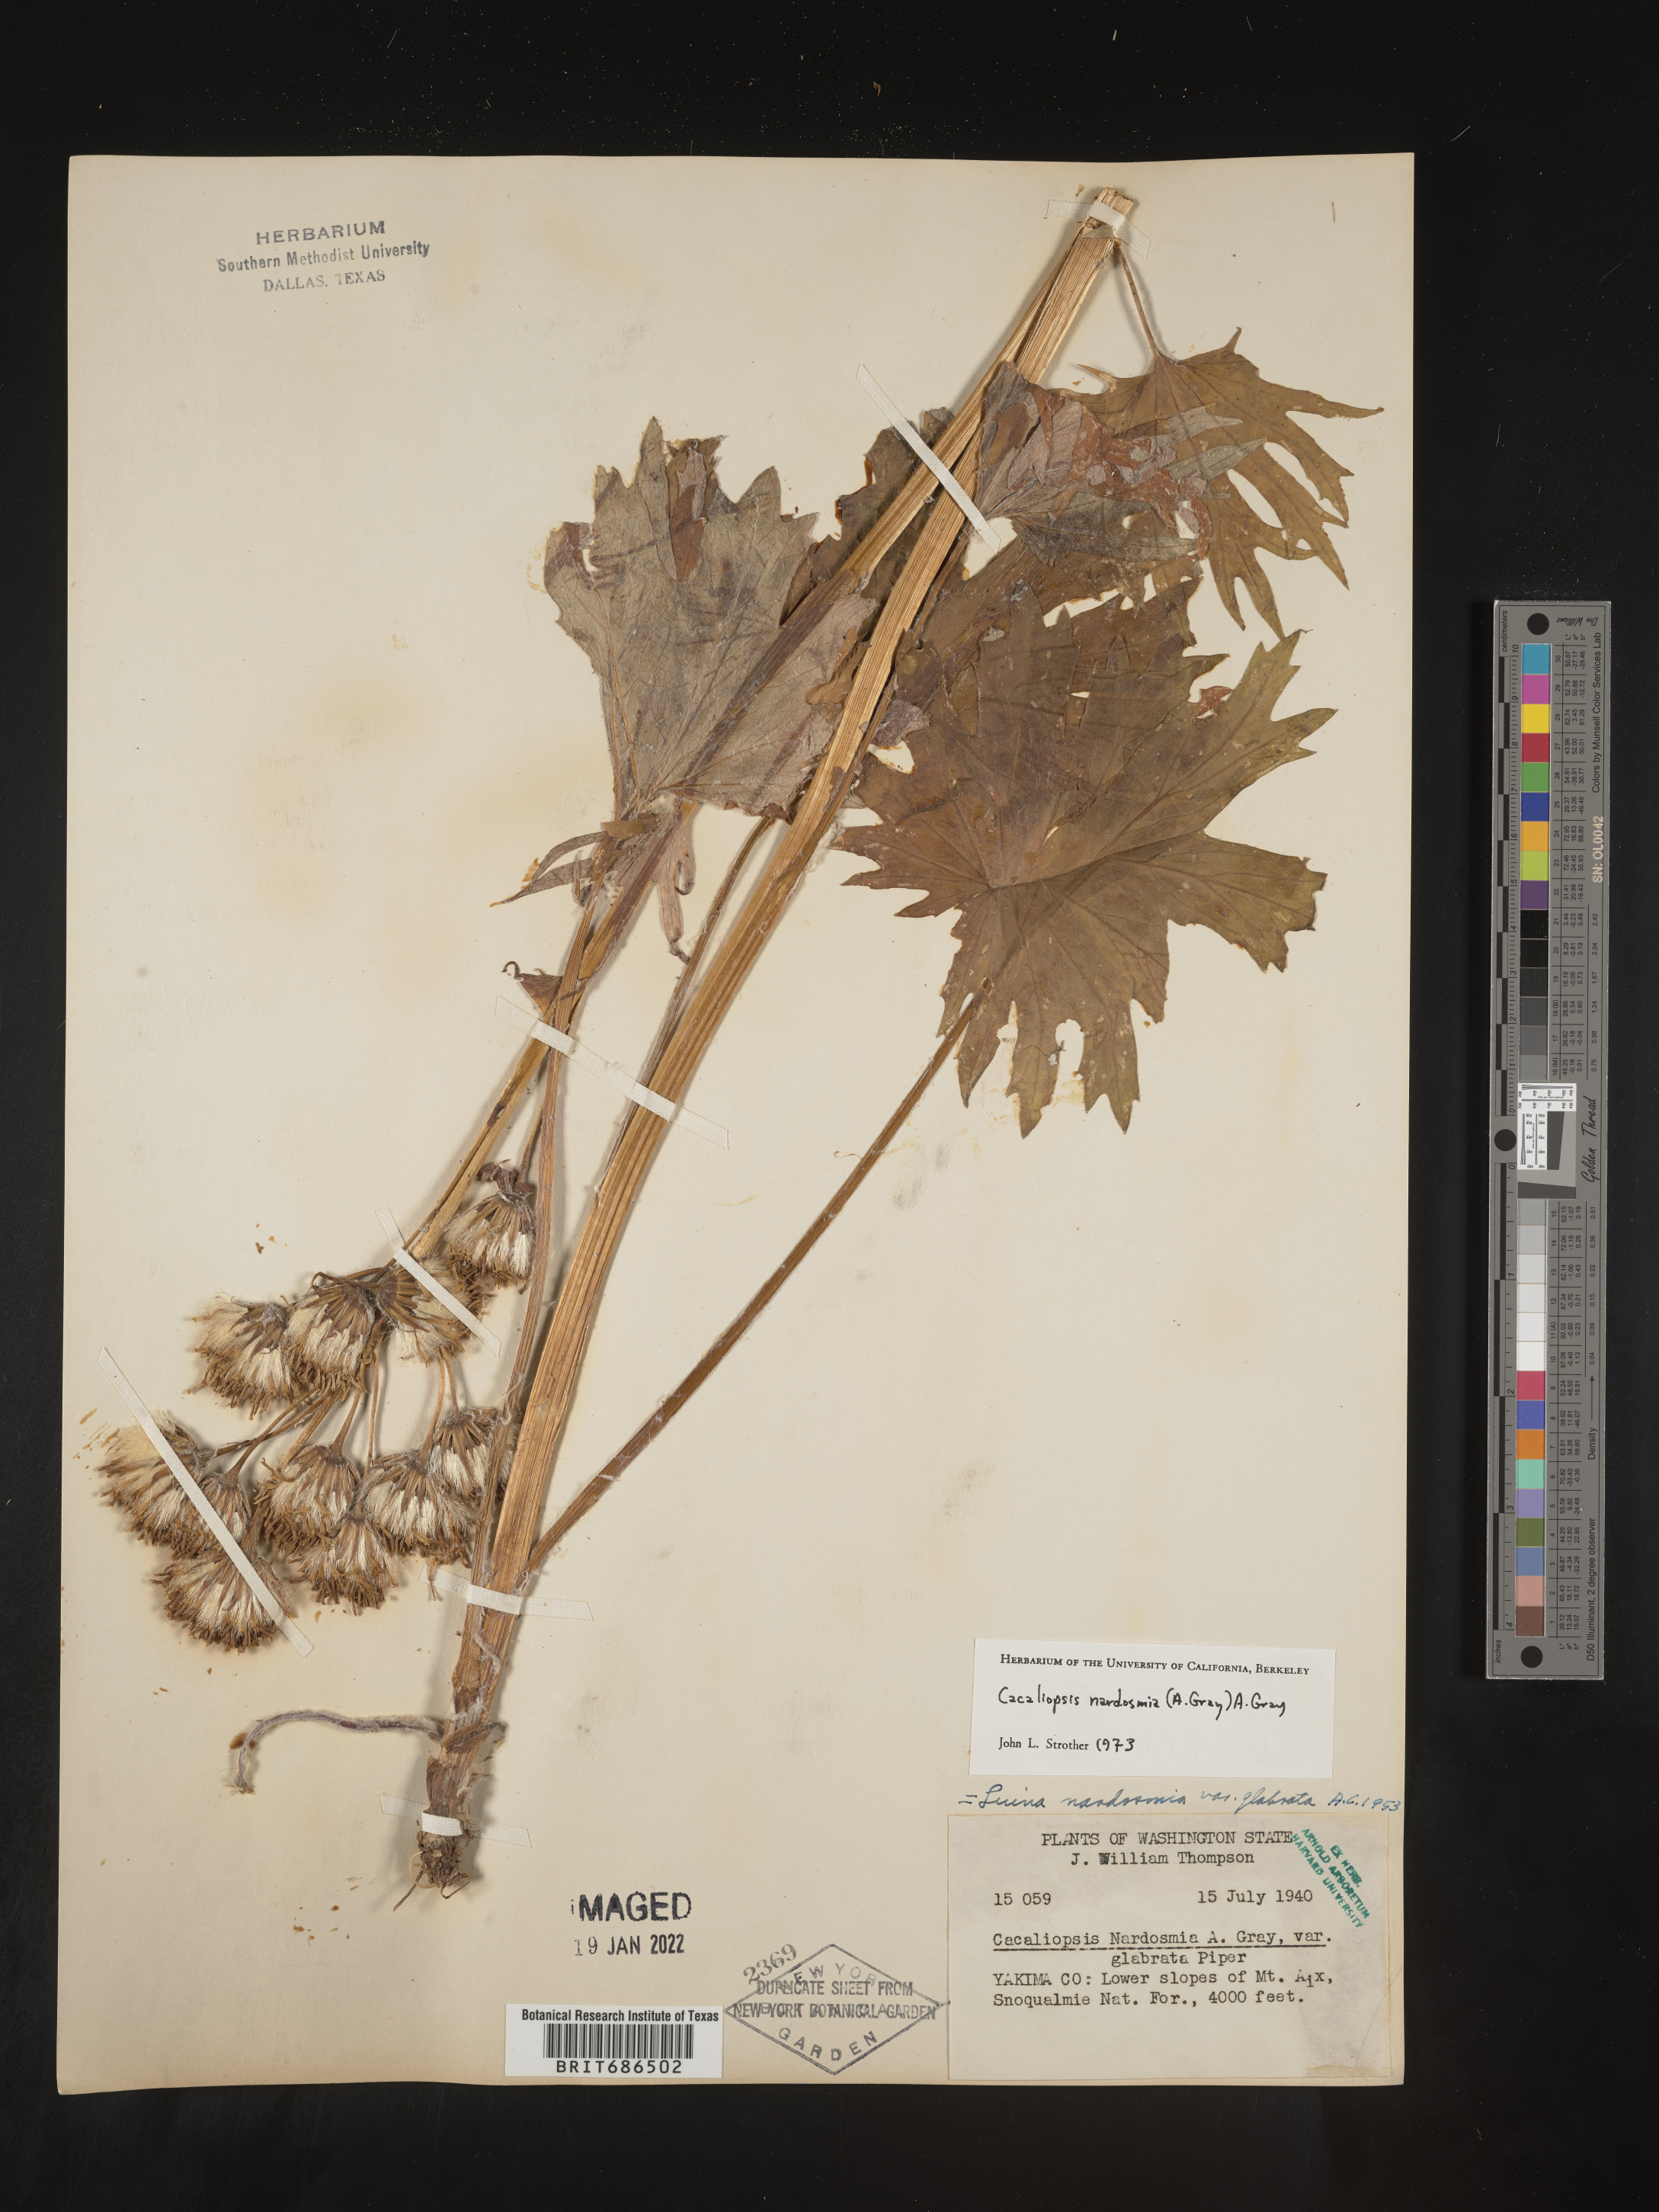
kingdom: Plantae
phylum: Tracheophyta
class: Magnoliopsida
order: Asterales
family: Asteraceae
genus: Cacaliopsis
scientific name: Cacaliopsis
